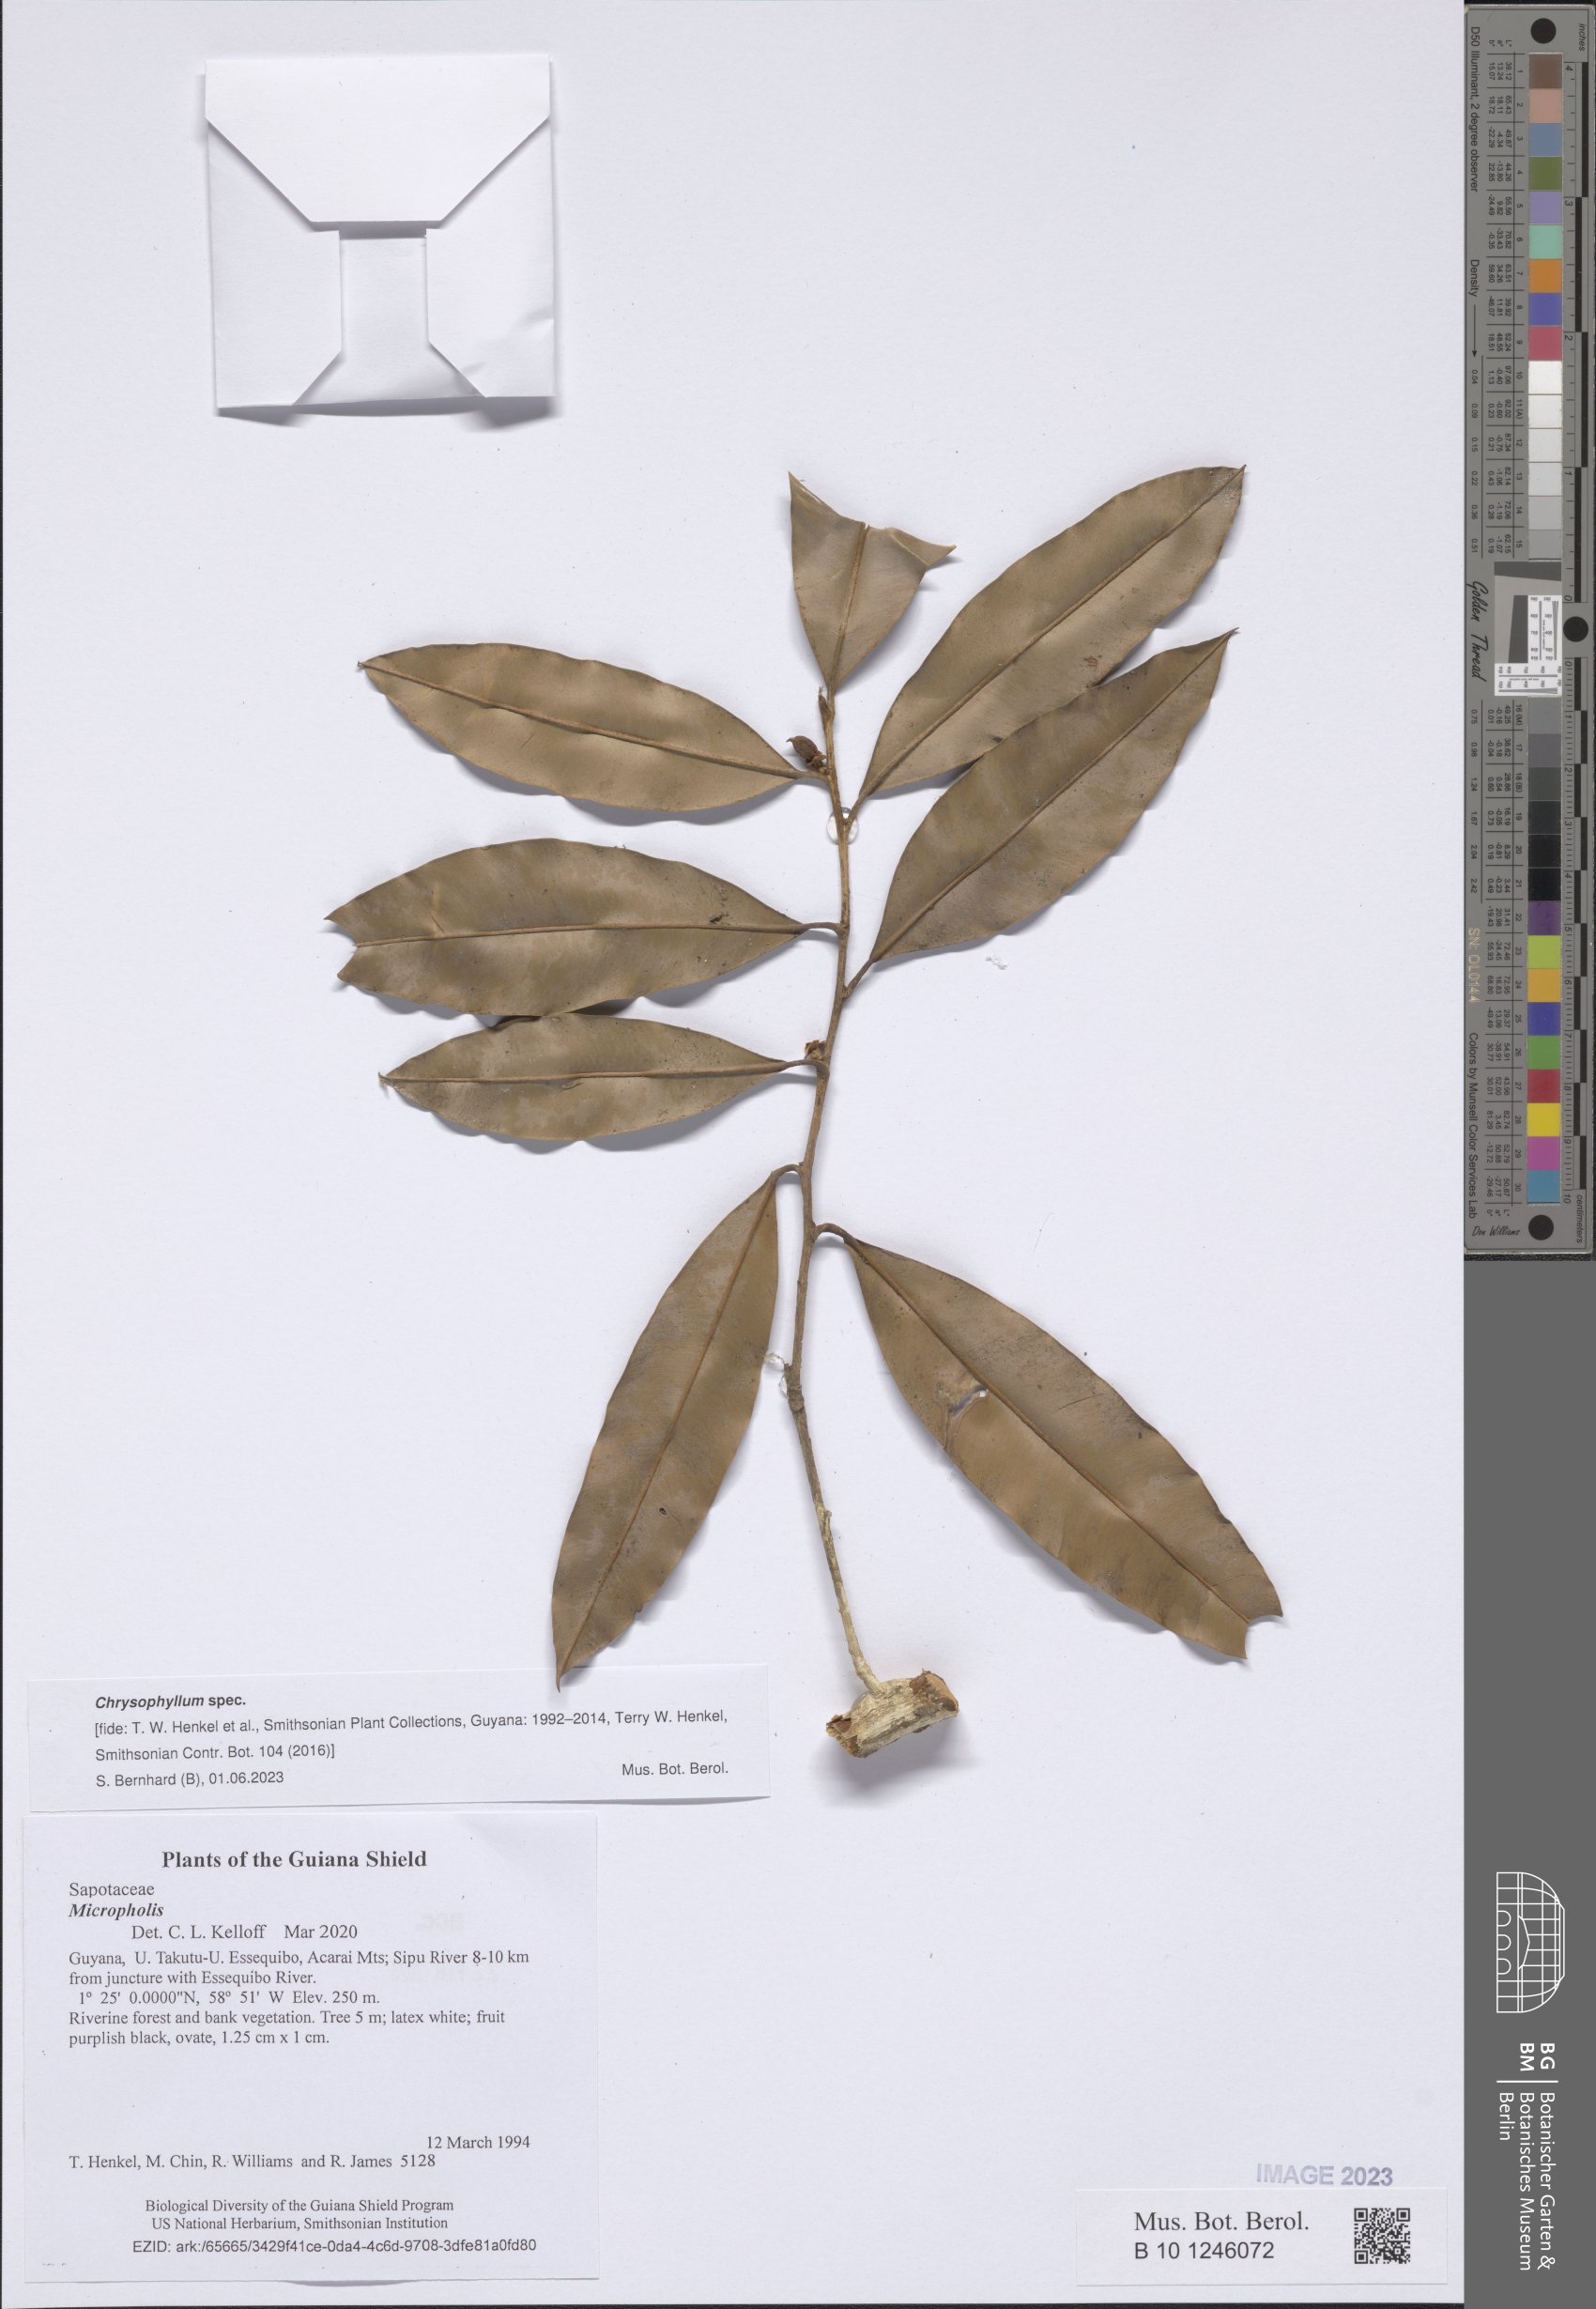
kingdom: Plantae
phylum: Tracheophyta
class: Magnoliopsida
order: Ericales
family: Sapotaceae
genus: Chrysophyllum
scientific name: Chrysophyllum
